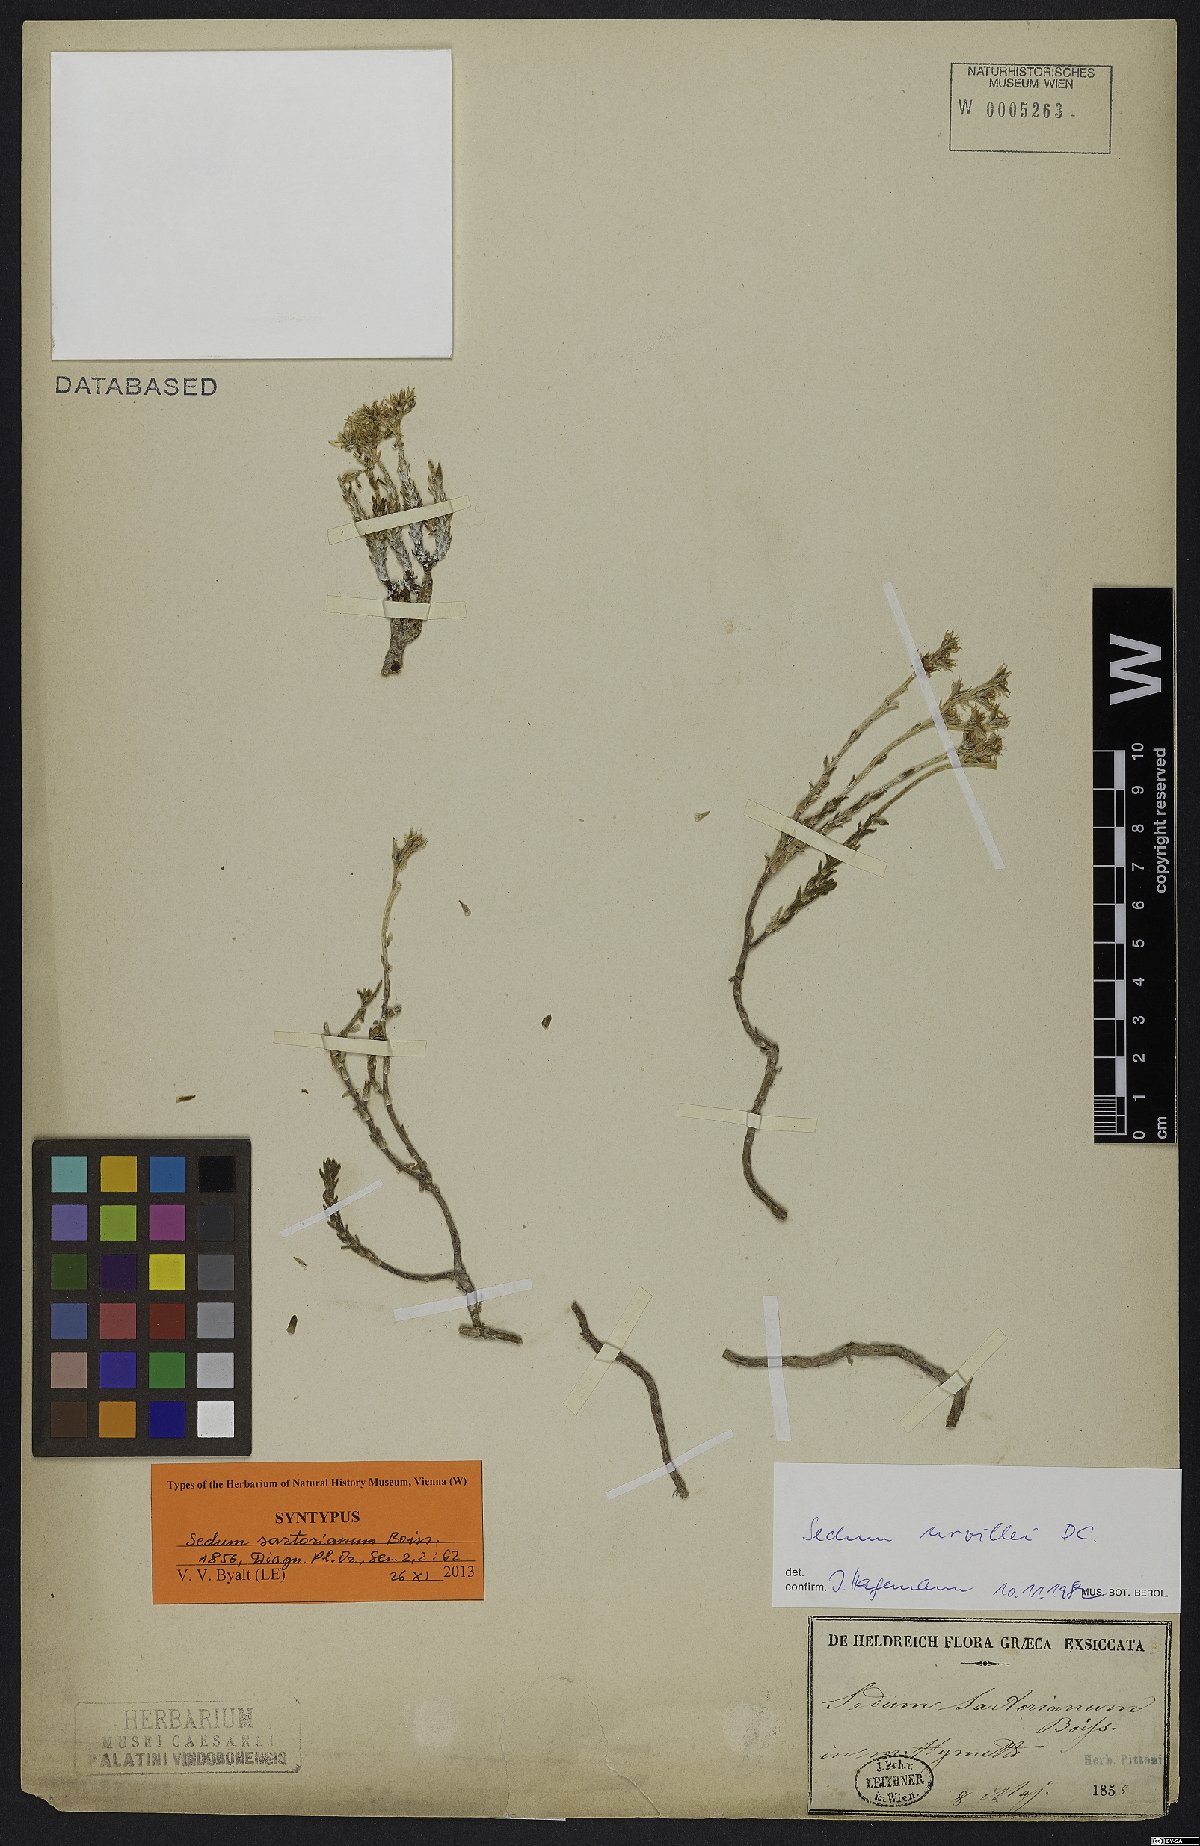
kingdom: Plantae
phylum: Tracheophyta
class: Magnoliopsida
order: Saxifragales
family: Crassulaceae
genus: Sedum
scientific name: Sedum urvillei
